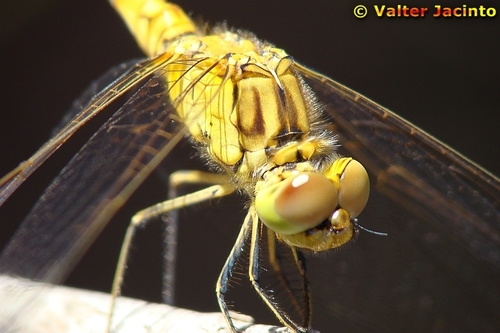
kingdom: Animalia
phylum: Arthropoda
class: Insecta
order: Odonata
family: Libellulidae
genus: Sympetrum
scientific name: Sympetrum meridionale
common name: Southern darter
